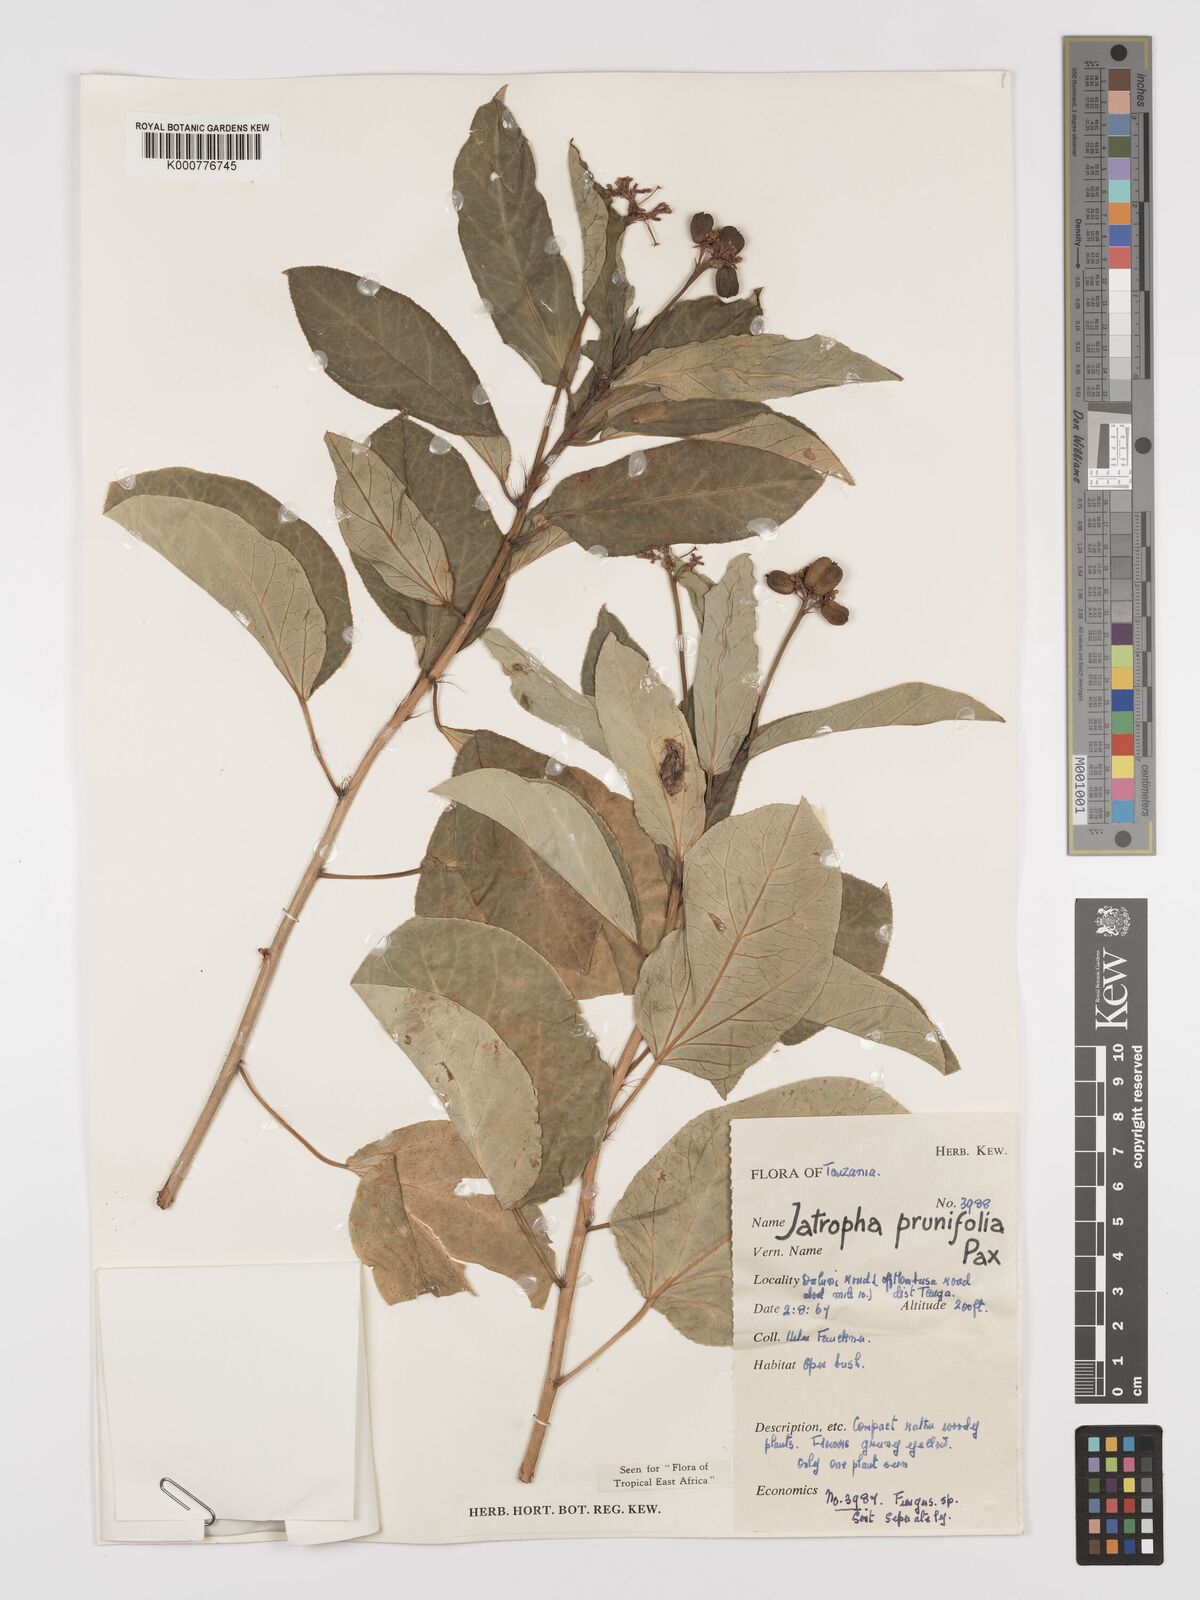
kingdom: Plantae
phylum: Tracheophyta
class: Magnoliopsida
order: Malpighiales
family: Euphorbiaceae
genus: Jatropha
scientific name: Jatropha
